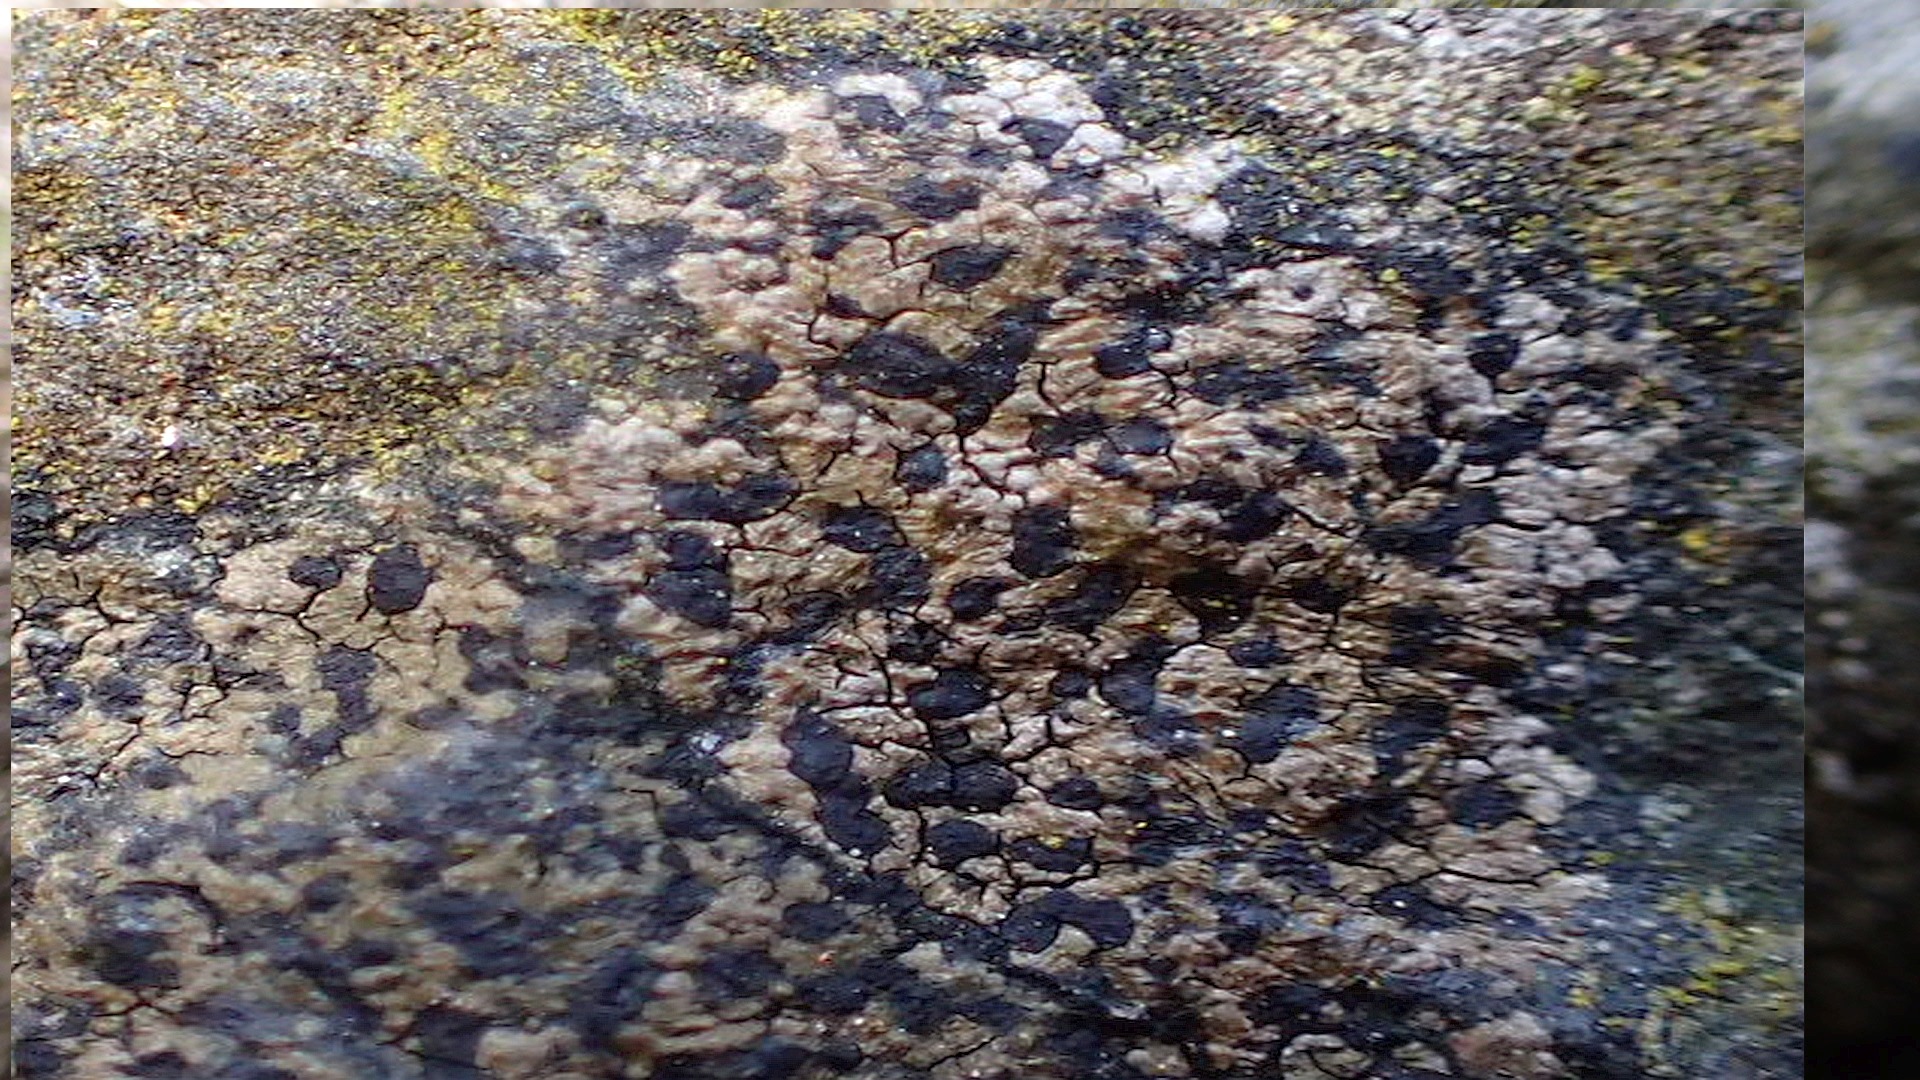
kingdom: Fungi
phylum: Ascomycota
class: Lecanoromycetes
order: Rhizocarpales
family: Rhizocarpaceae
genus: Rhizocarpon
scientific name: Rhizocarpon
